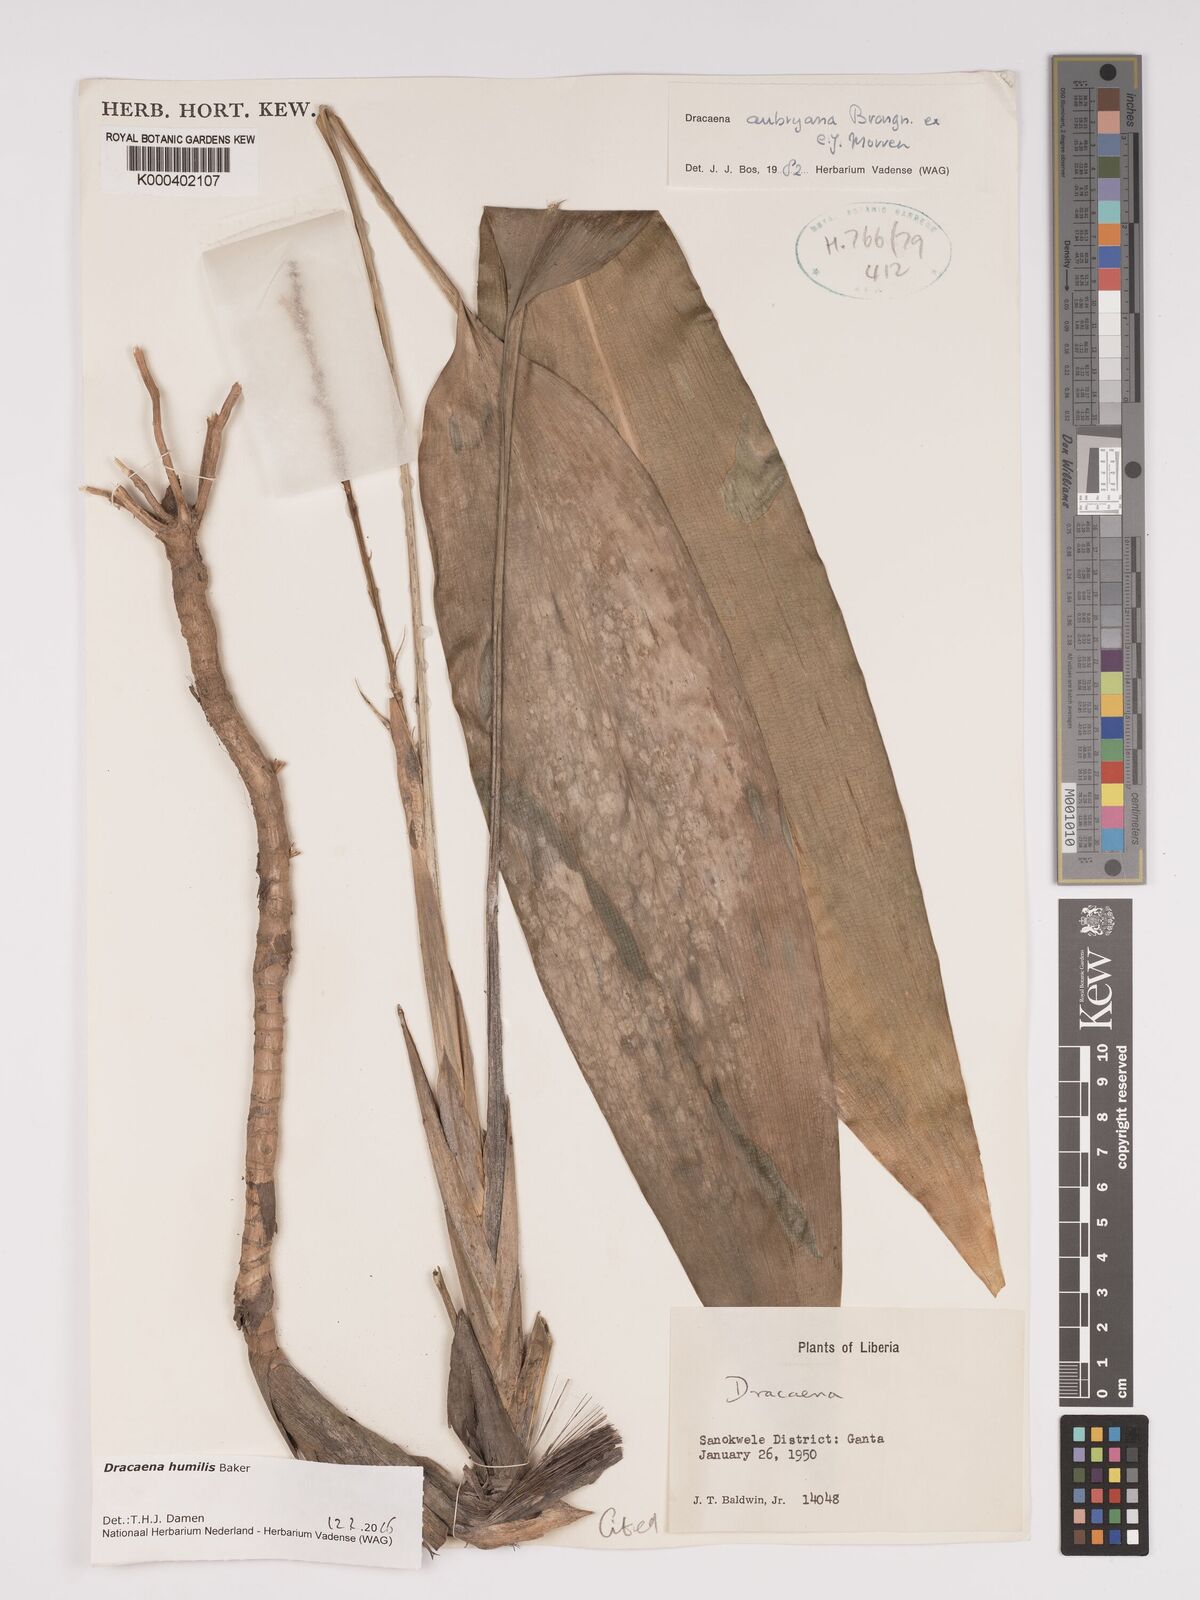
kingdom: Plantae
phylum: Tracheophyta
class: Liliopsida
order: Asparagales
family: Asparagaceae
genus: Dracaena
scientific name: Dracaena aubryana
